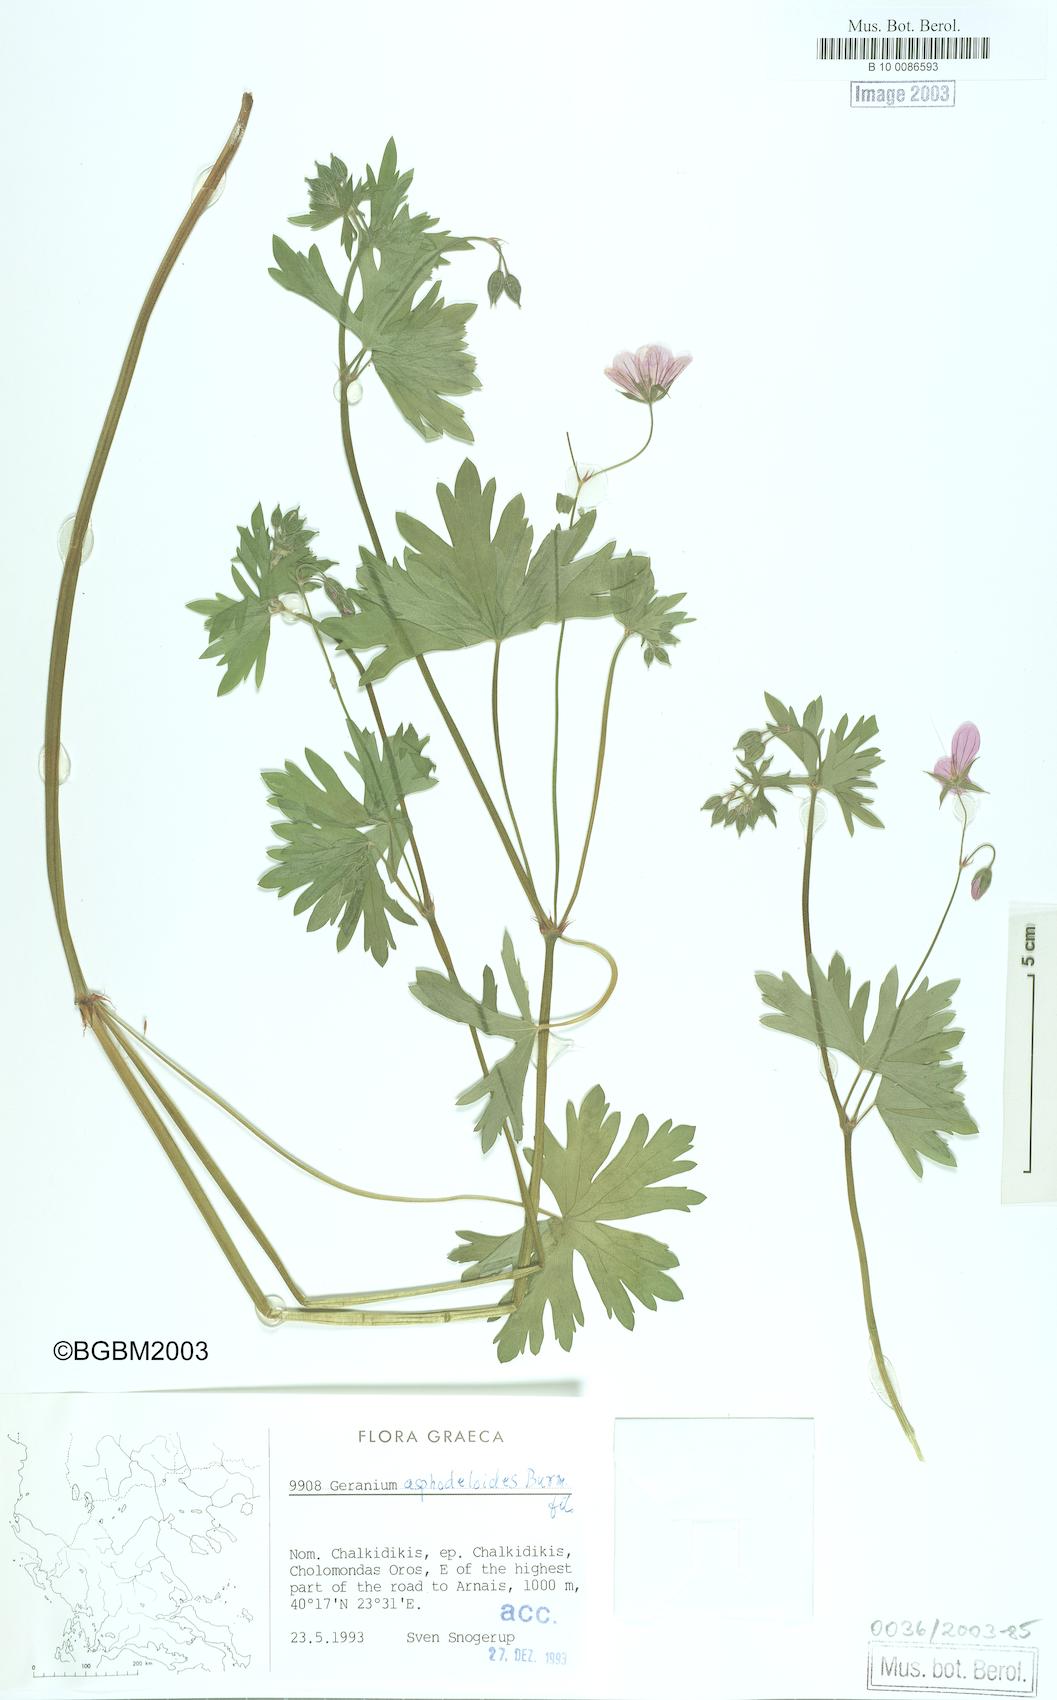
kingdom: Plantae
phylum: Tracheophyta
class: Magnoliopsida
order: Geraniales
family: Geraniaceae
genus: Geranium
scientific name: Geranium asphodeloides
